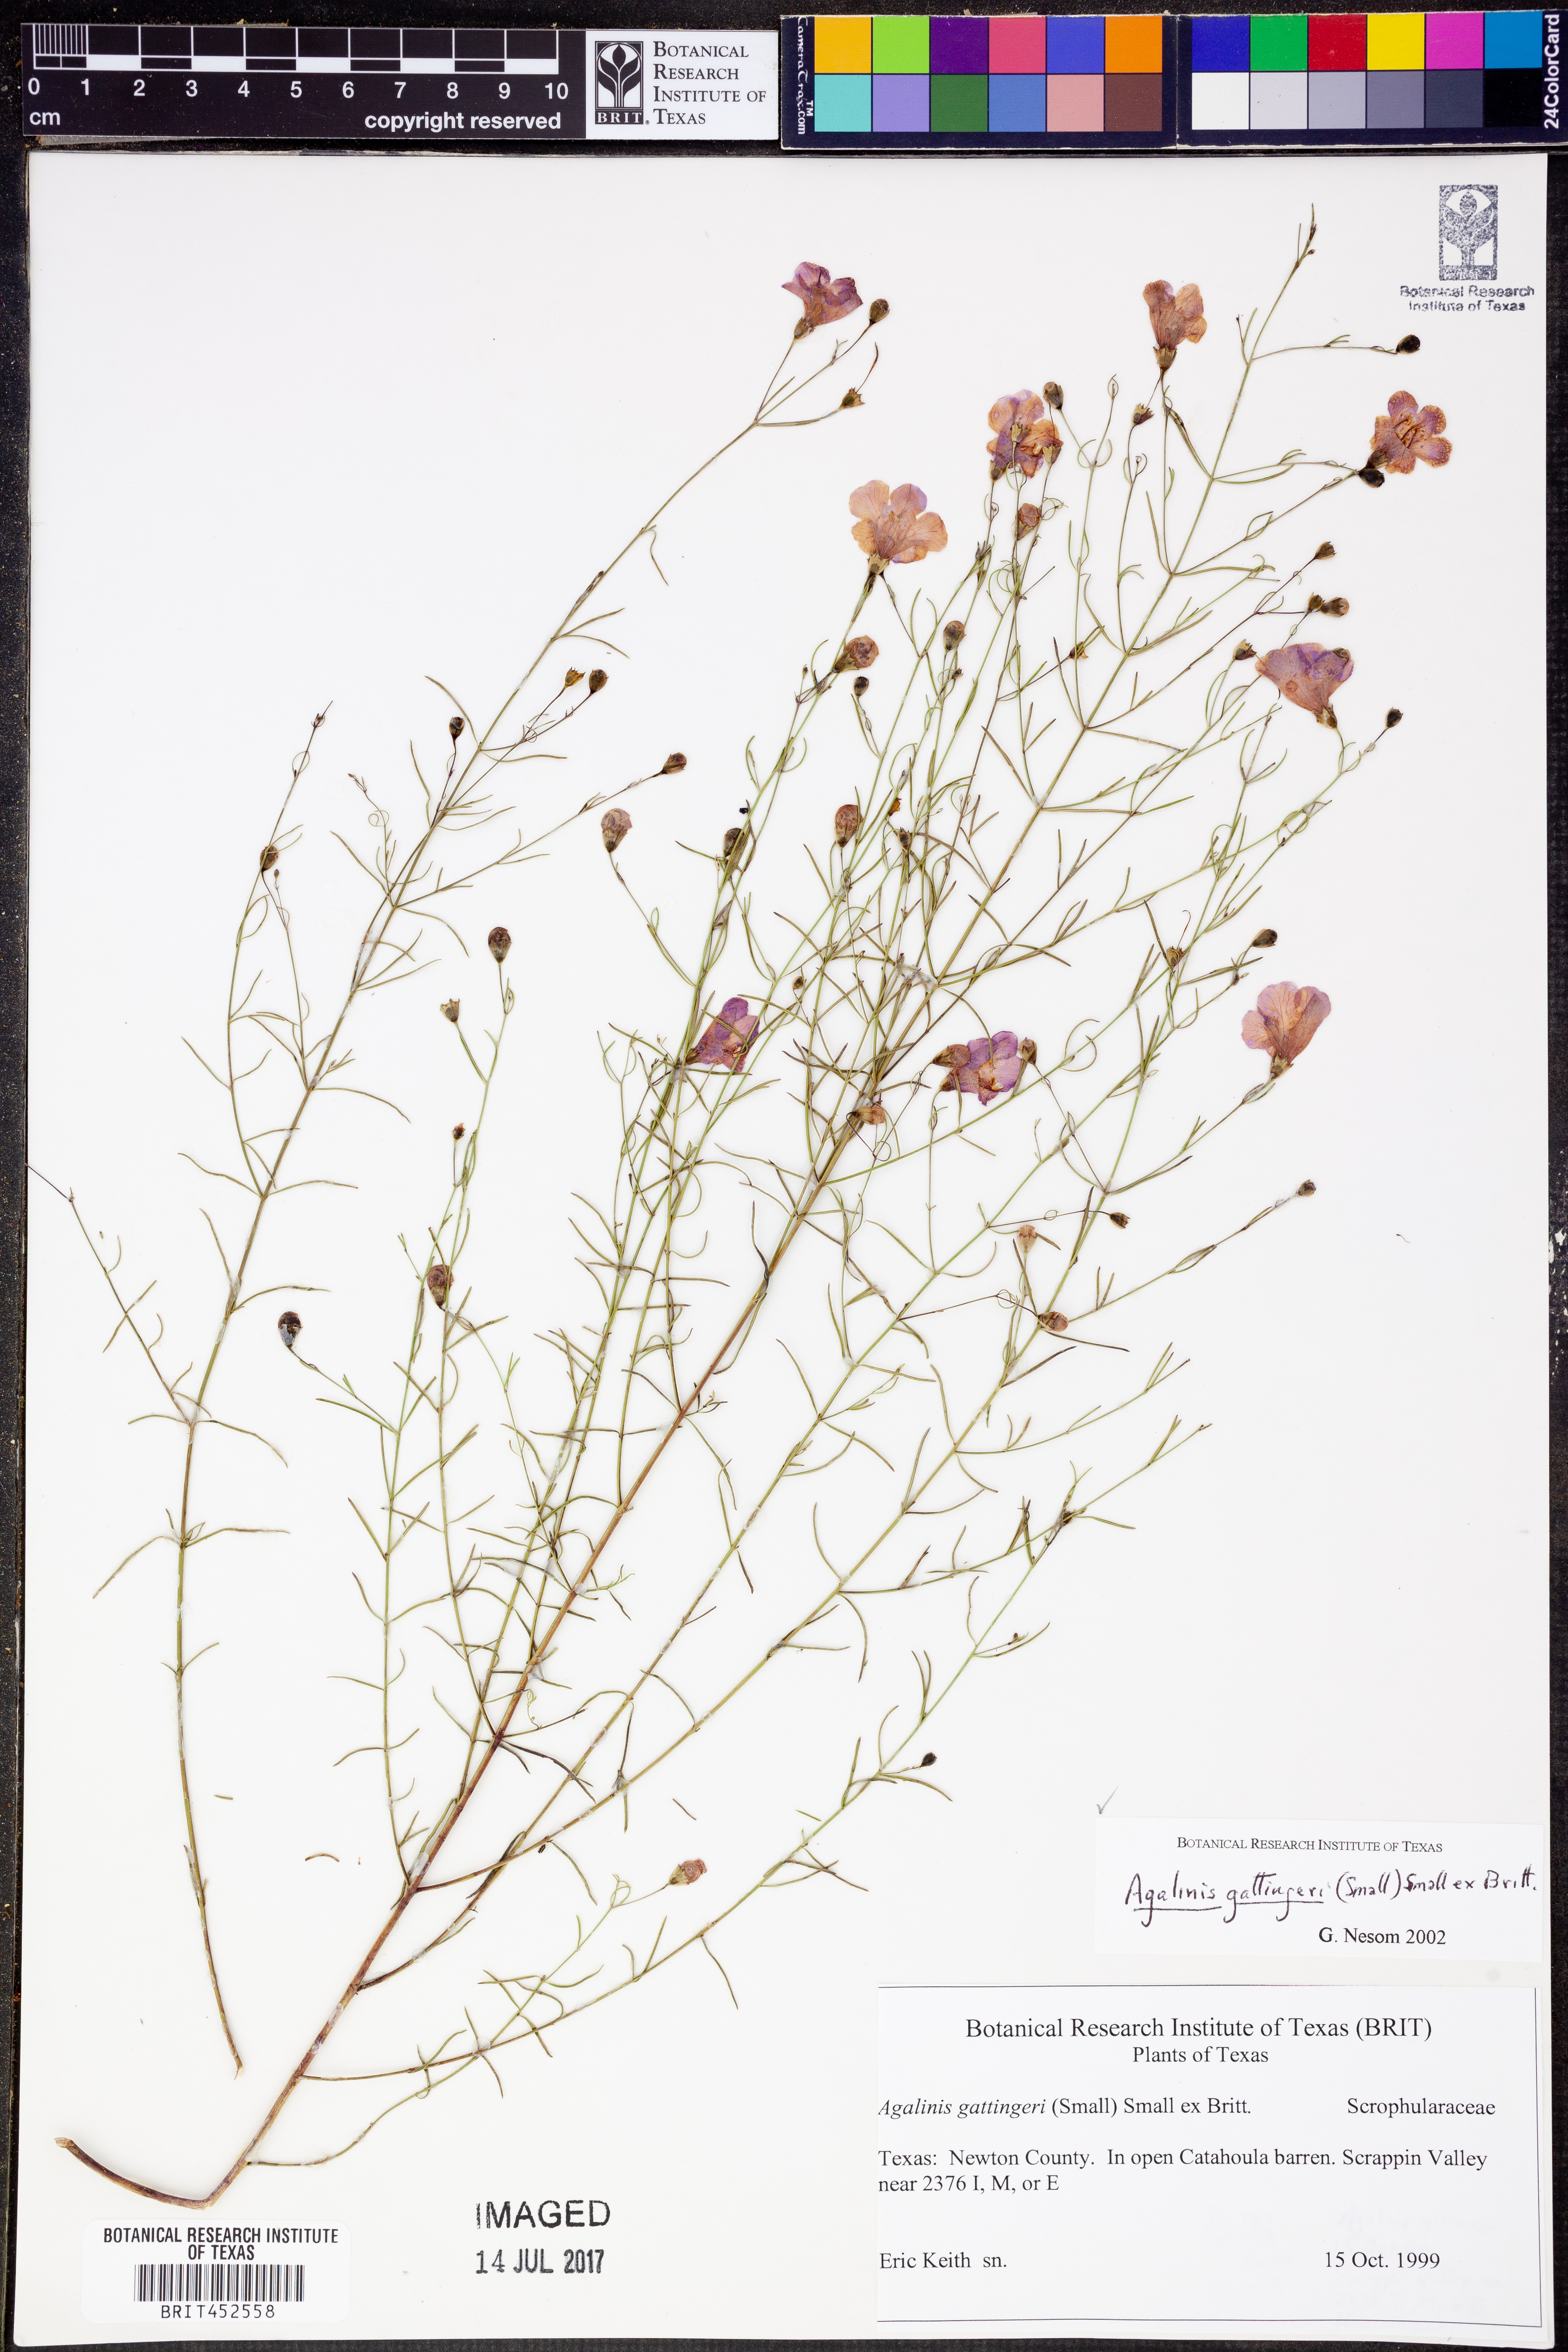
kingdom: Plantae
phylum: Tracheophyta
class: Magnoliopsida
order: Lamiales
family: Orobanchaceae
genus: Agalinis
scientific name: Agalinis gattingeri
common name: Gattinger's agalinis
